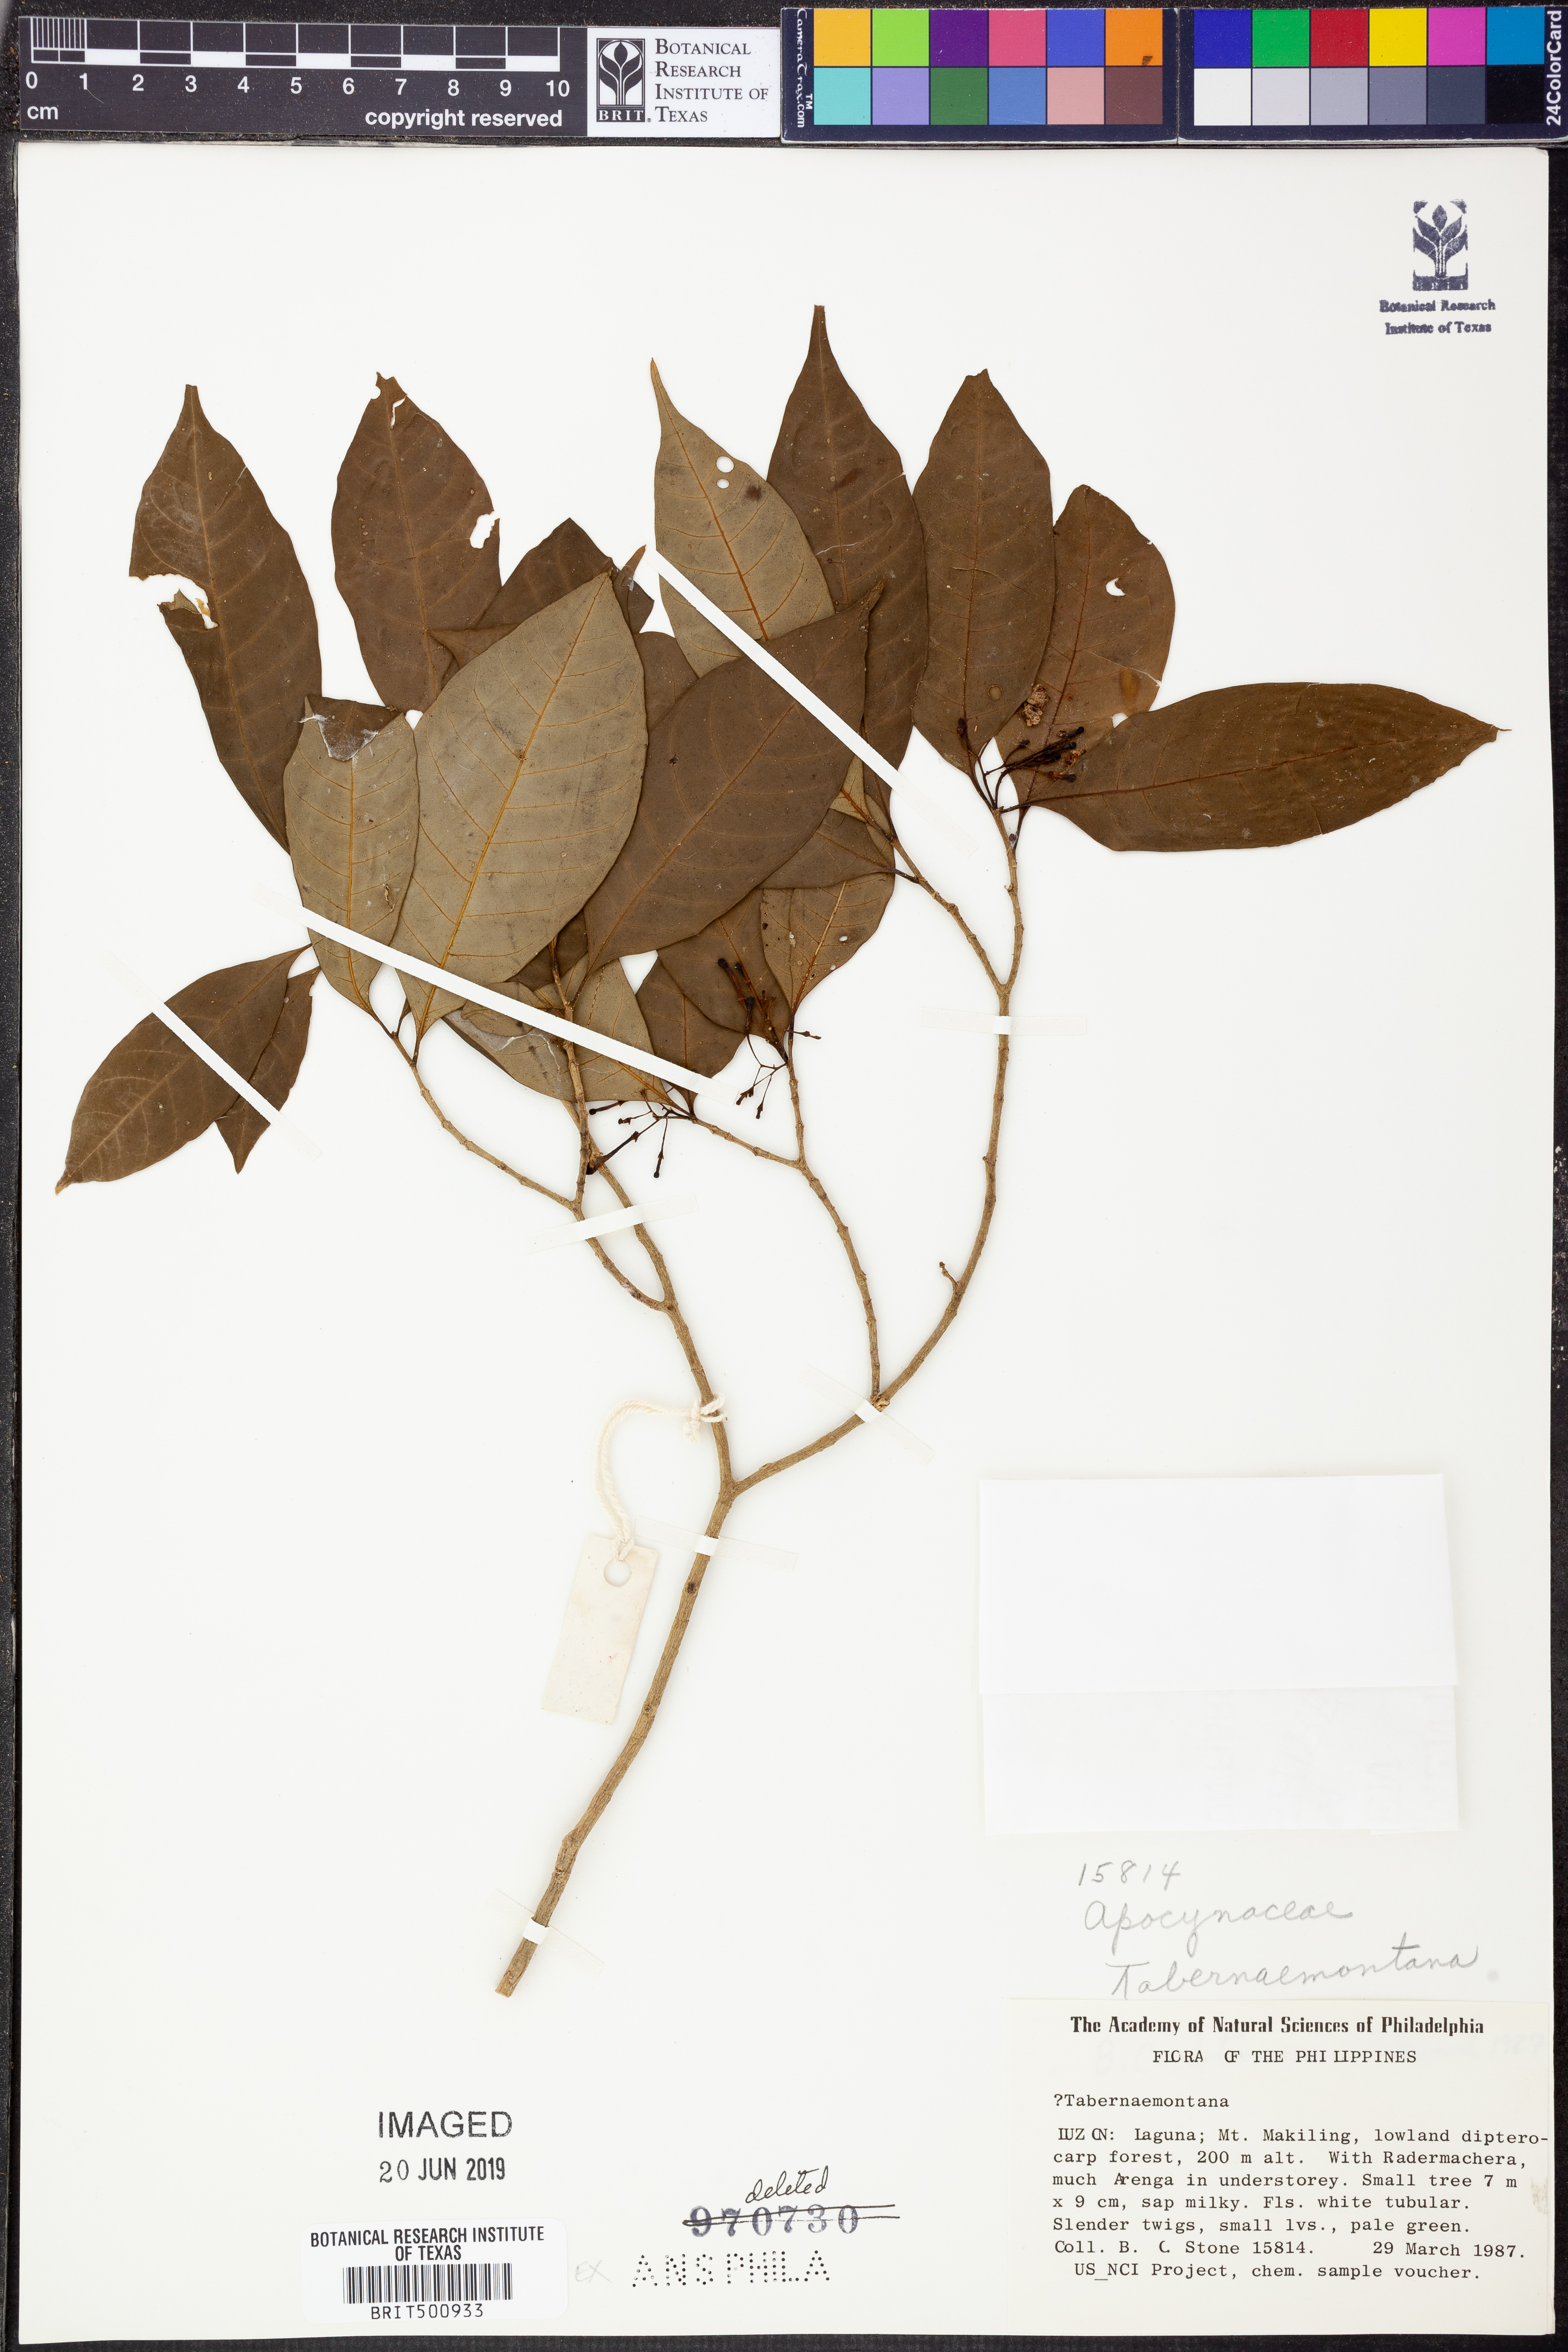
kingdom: Plantae
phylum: Tracheophyta
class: Magnoliopsida
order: Gentianales
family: Apocynaceae
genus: Tabernaemontana
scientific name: Tabernaemontana
